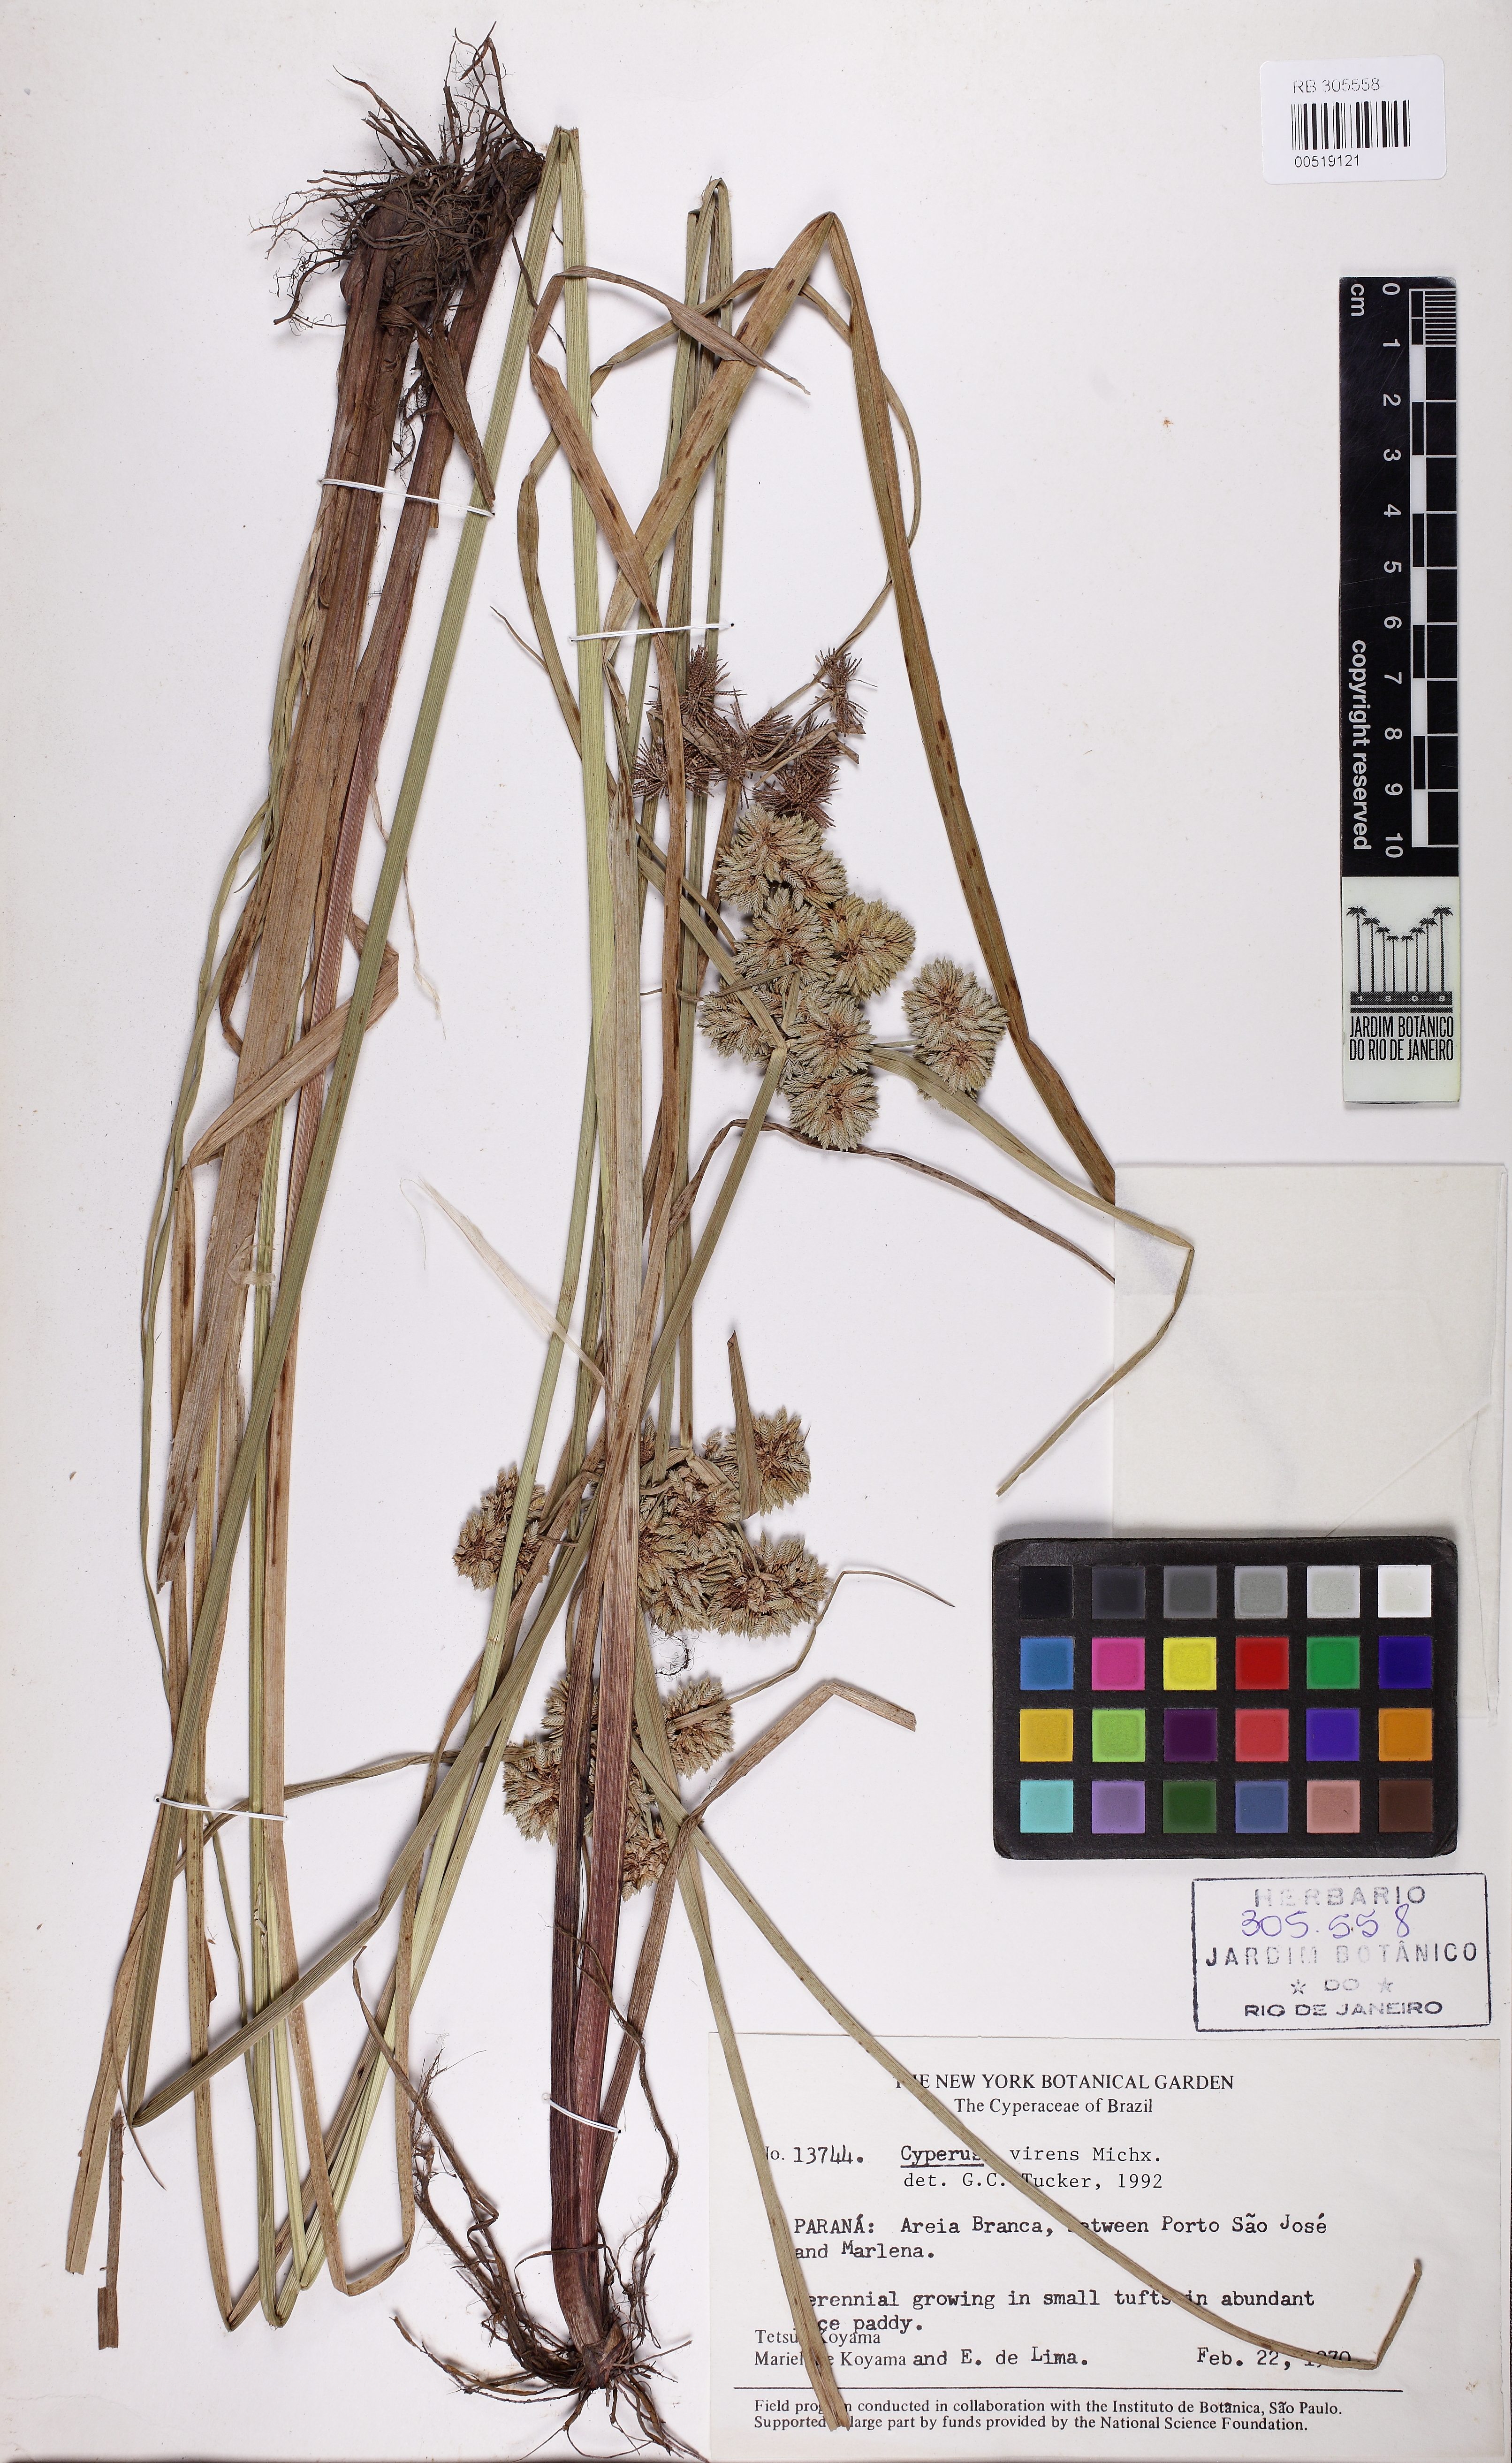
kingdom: Plantae
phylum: Tracheophyta
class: Liliopsida
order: Poales
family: Cyperaceae
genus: Cyperus
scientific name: Cyperus virens
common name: Green flatsedge
